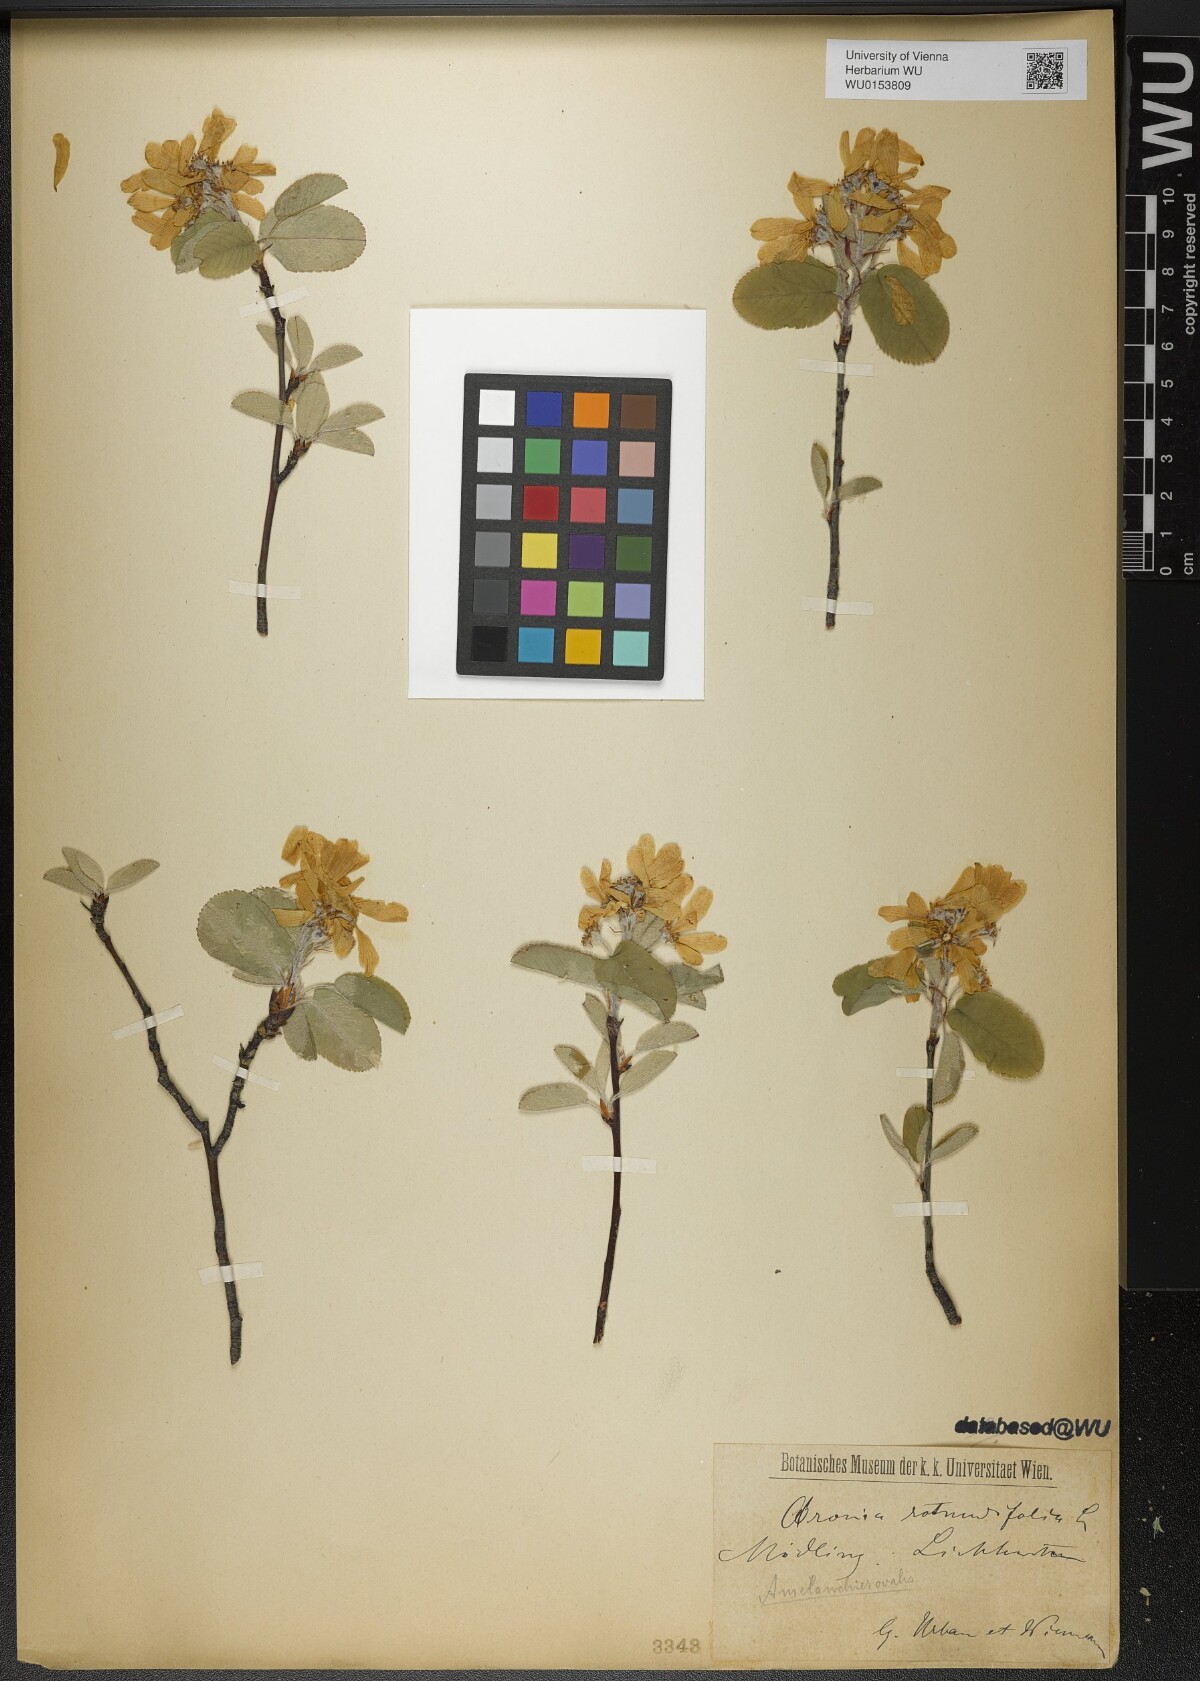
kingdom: Plantae
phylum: Tracheophyta
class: Magnoliopsida
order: Rosales
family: Rosaceae
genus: Amelanchier
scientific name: Amelanchier ovalis
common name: Serviceberry
